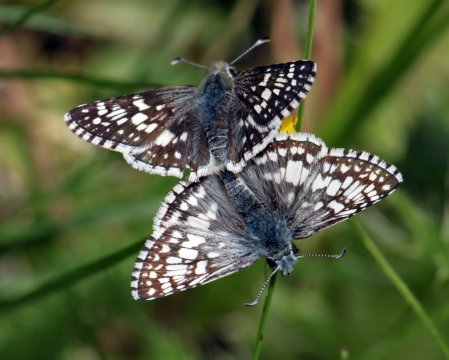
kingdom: Animalia
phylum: Arthropoda
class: Insecta
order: Lepidoptera
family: Hesperiidae
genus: Pyrgus
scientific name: Pyrgus communis
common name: Common Checkered-Skipper
